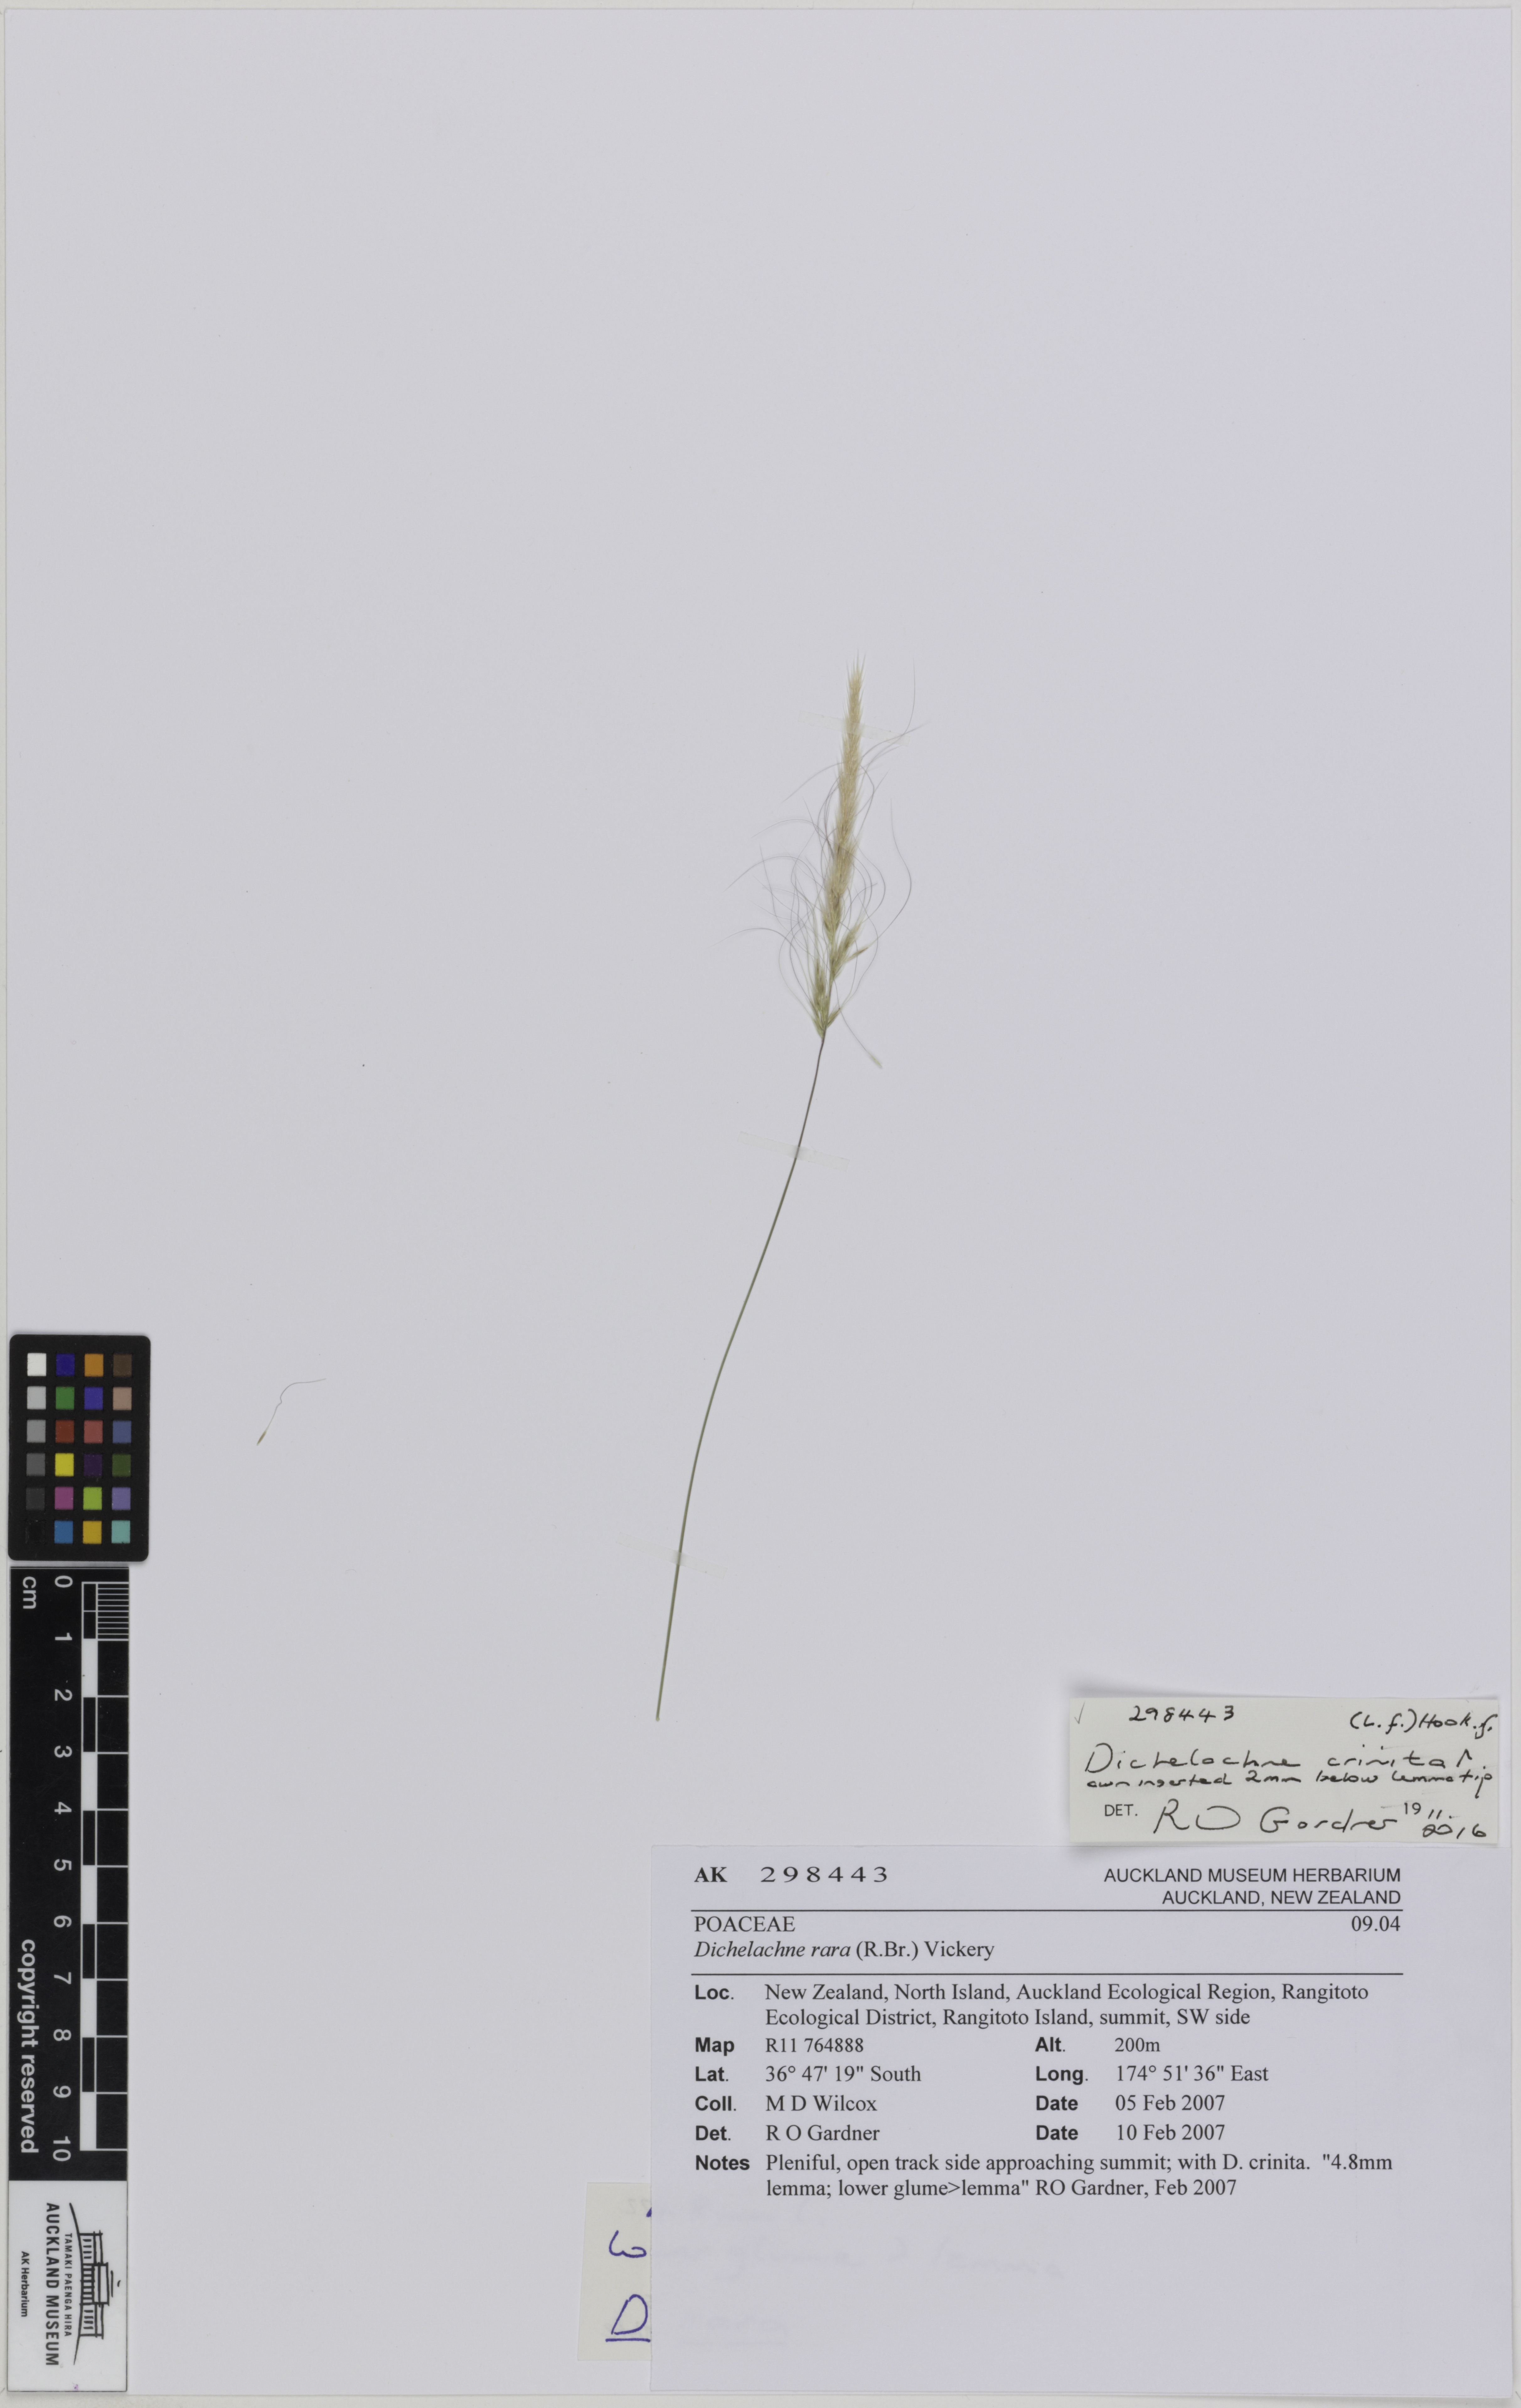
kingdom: Plantae
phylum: Tracheophyta
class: Liliopsida
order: Poales
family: Poaceae
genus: Dichelachne
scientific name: Dichelachne crinita
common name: Clovenfoot plumegrass
